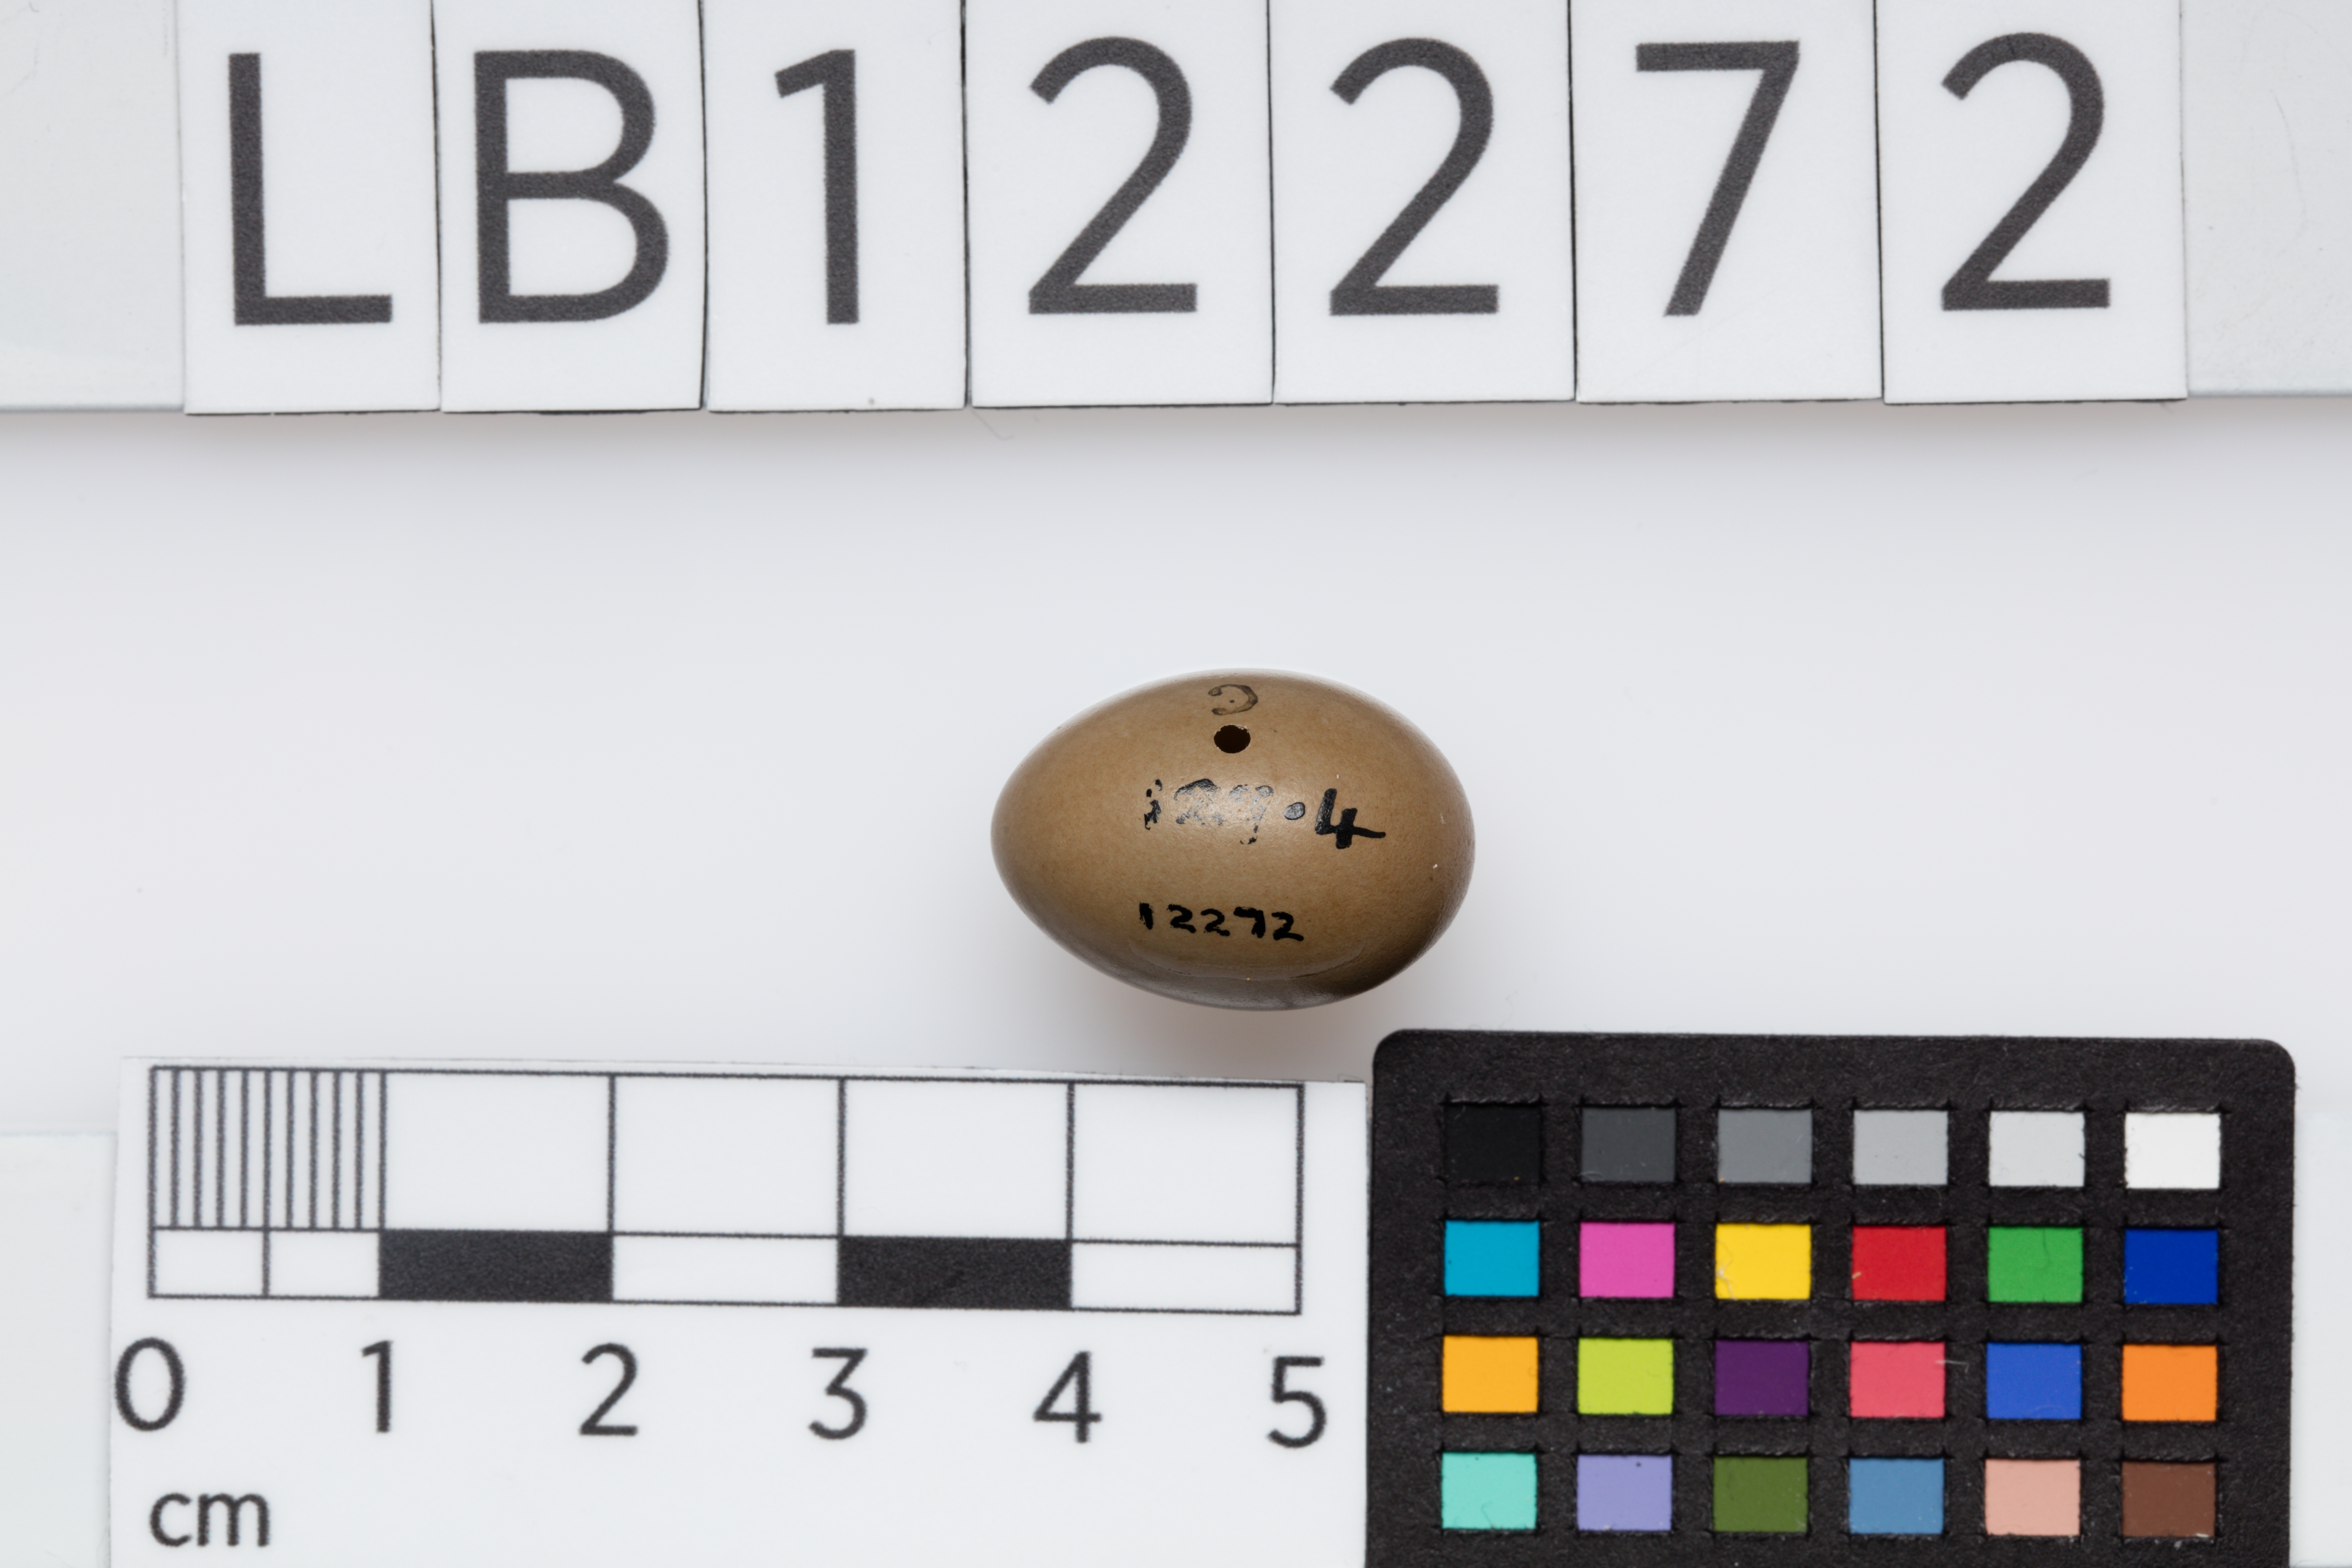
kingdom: Animalia
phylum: Chordata
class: Aves
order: Passeriformes
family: Muscicapidae
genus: Luscinia
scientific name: Luscinia megarhynchos
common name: Common nightingale
